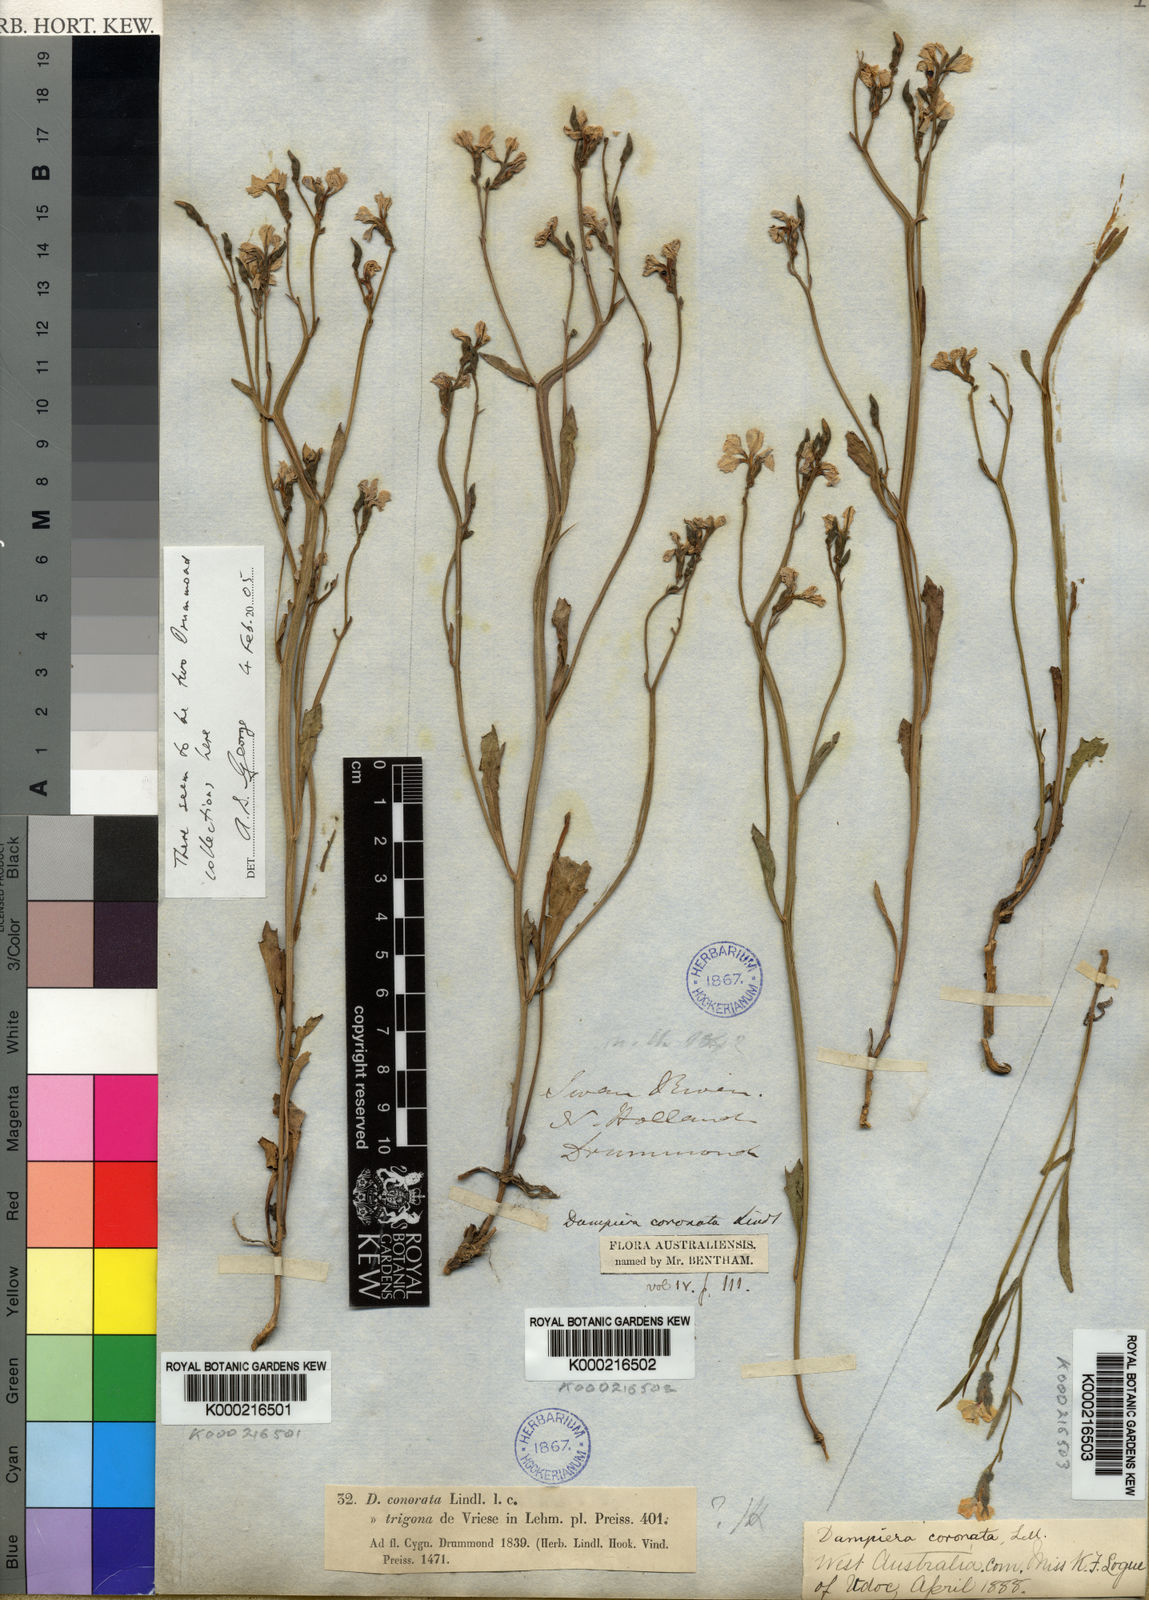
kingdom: Plantae
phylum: Tracheophyta
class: Magnoliopsida
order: Asterales
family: Goodeniaceae
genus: Dampiera
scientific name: Dampiera coronata
